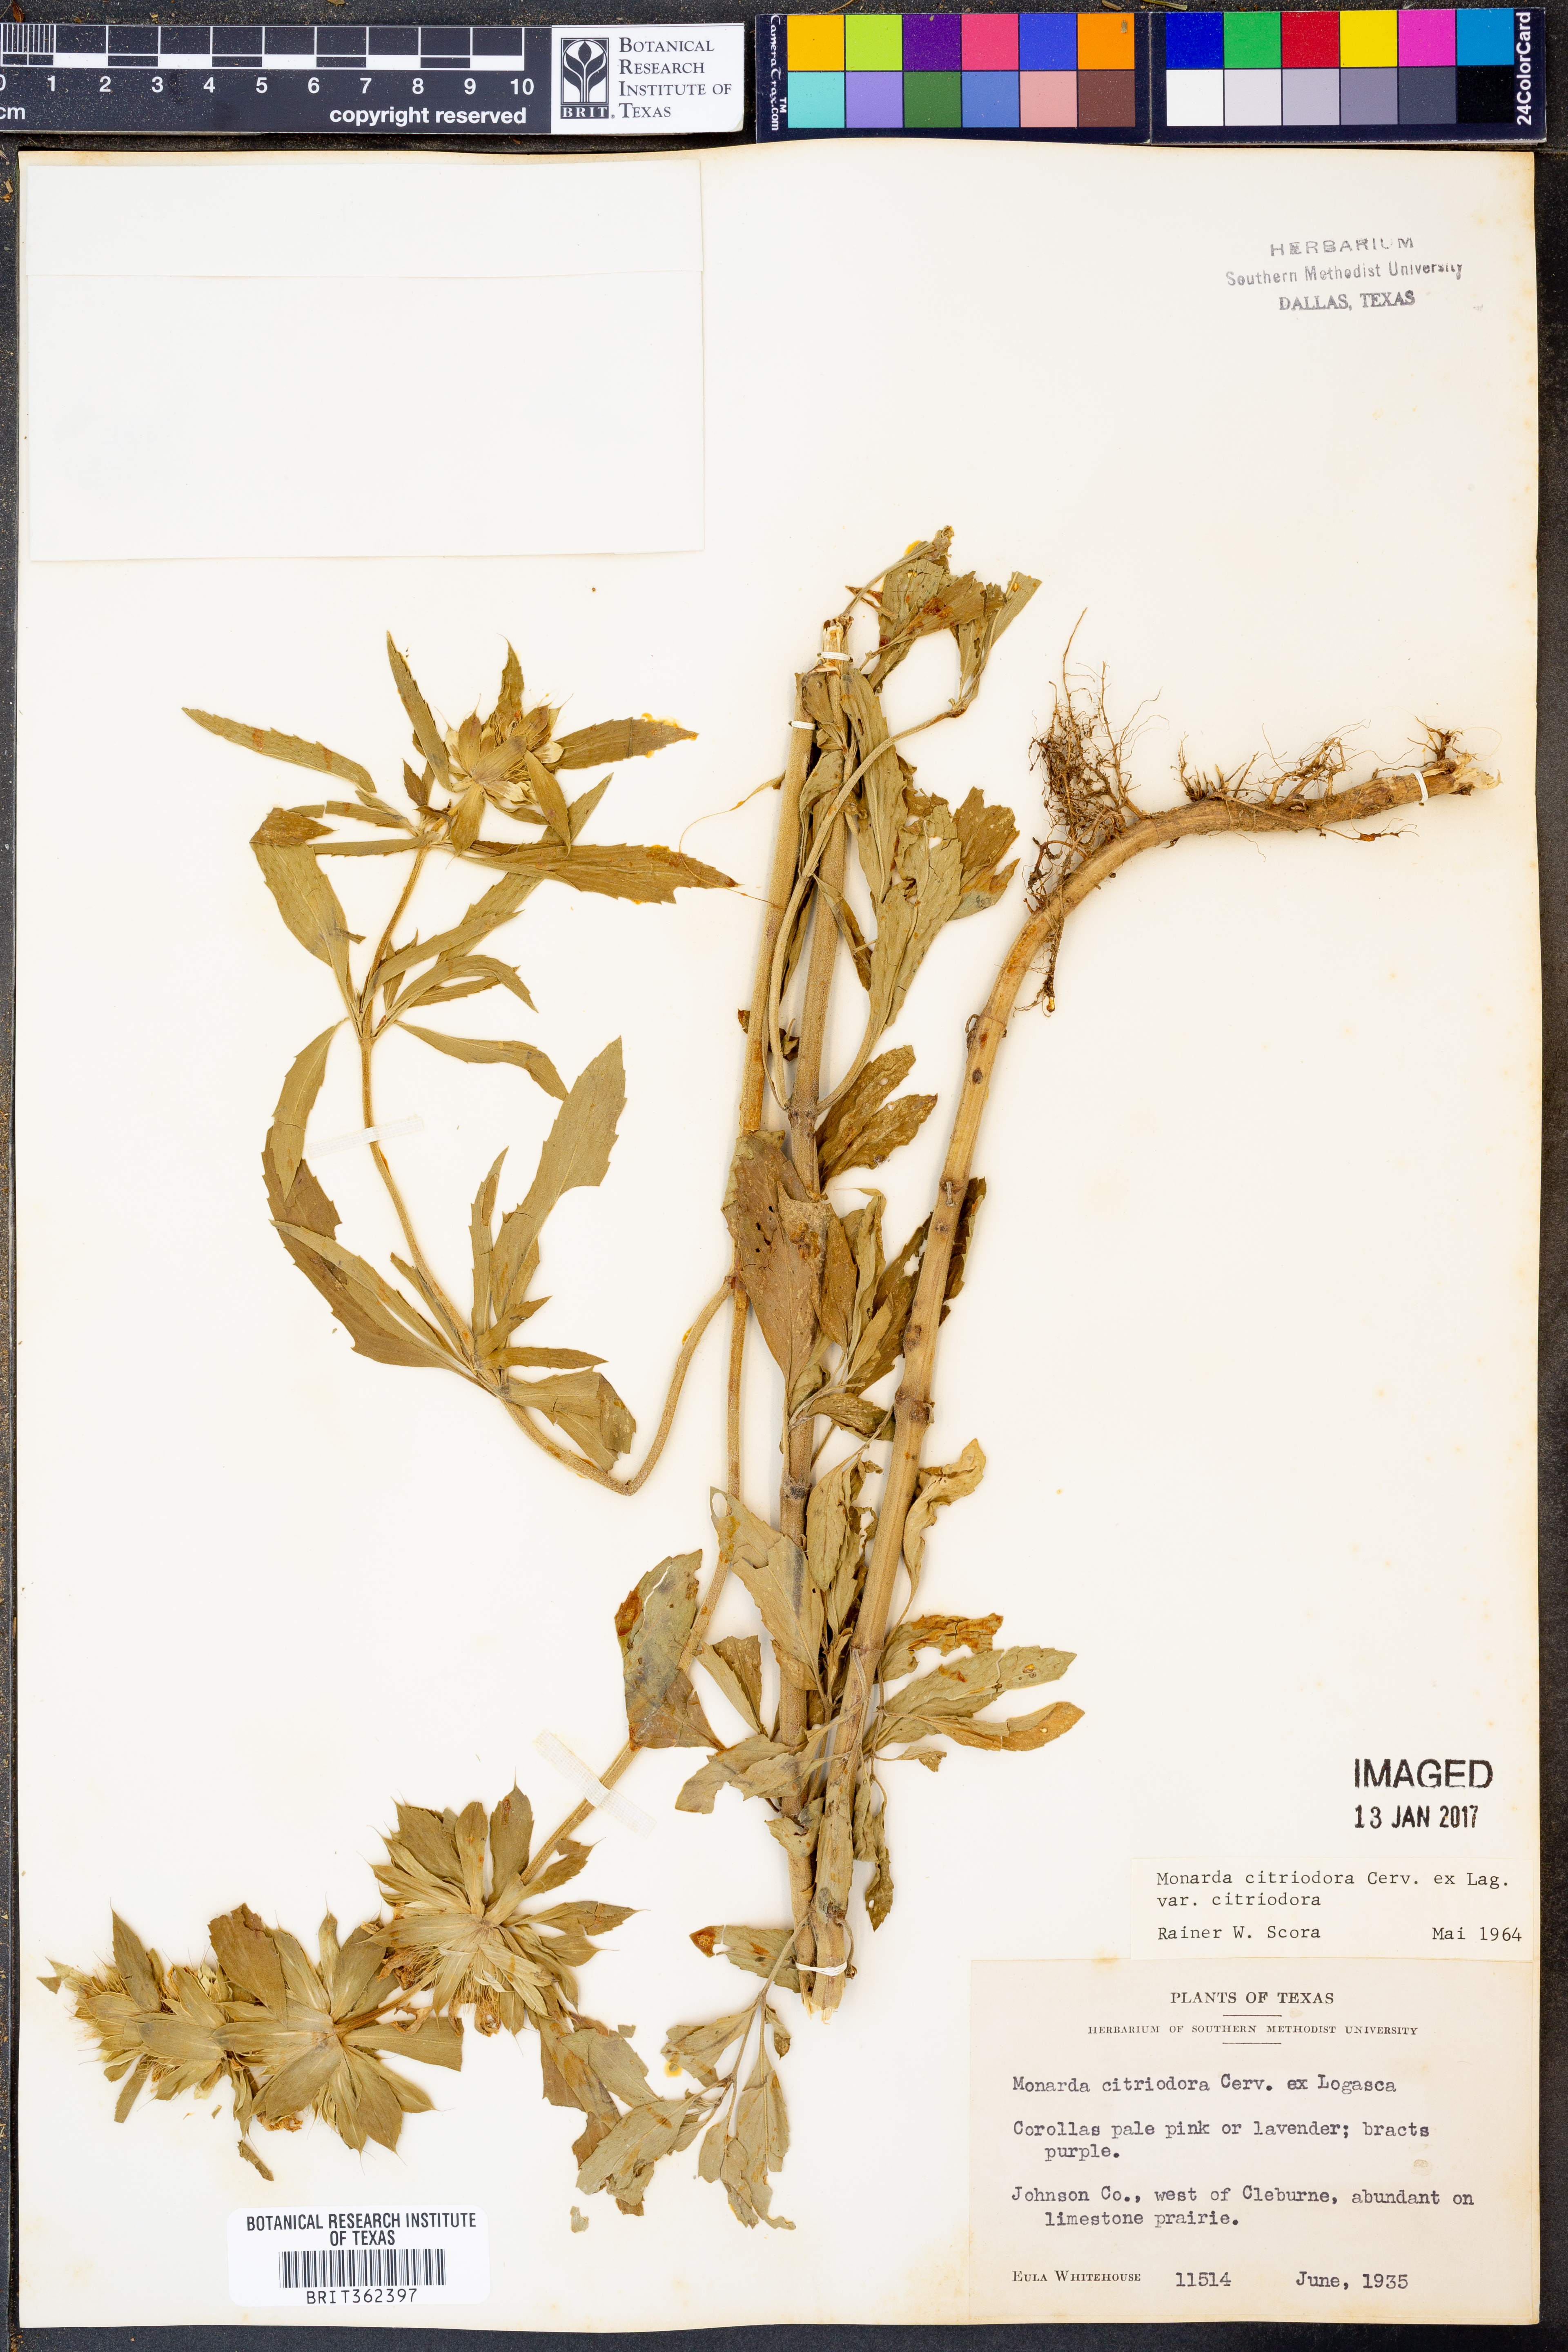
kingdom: Plantae
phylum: Tracheophyta
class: Magnoliopsida
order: Lamiales
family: Lamiaceae
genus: Monarda
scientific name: Monarda citriodora
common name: Lemon beebalm
